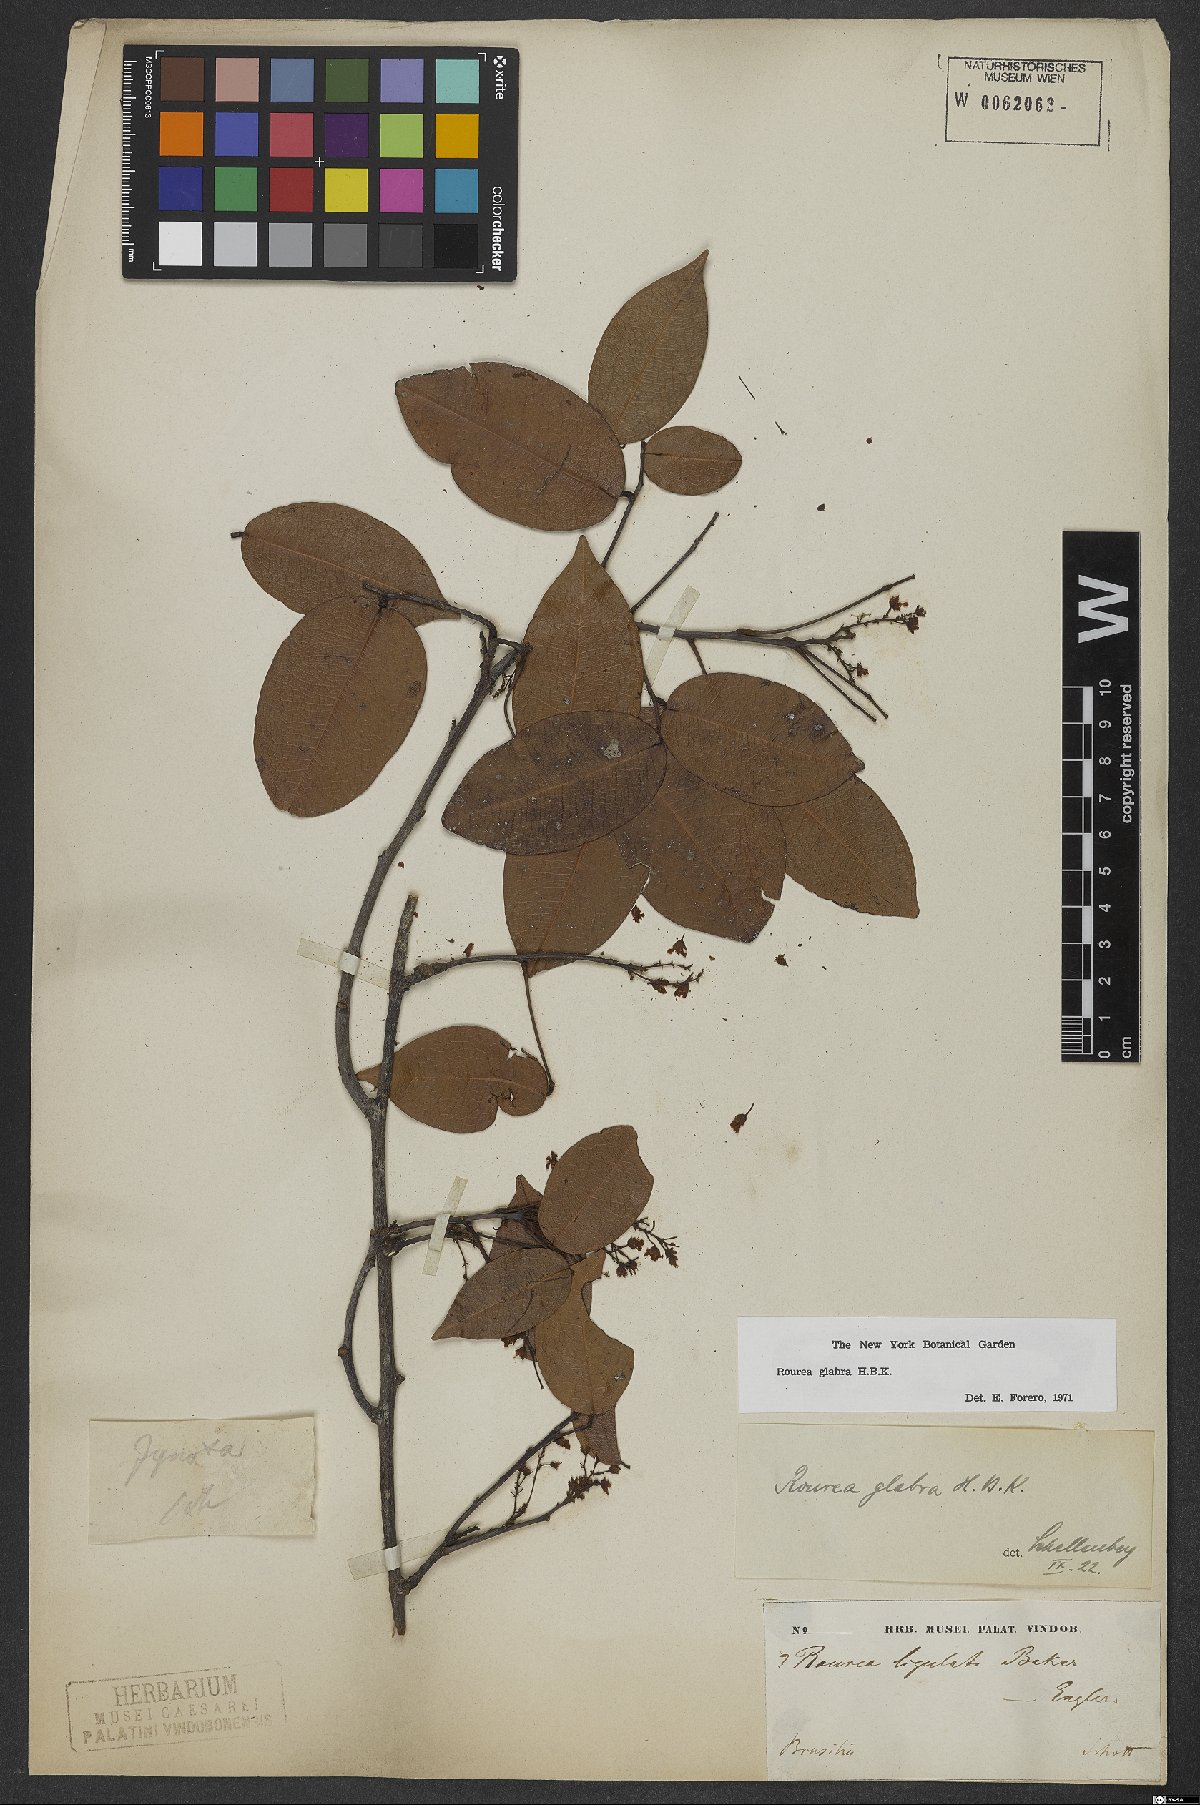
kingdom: Plantae
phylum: Tracheophyta
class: Magnoliopsida
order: Oxalidales
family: Connaraceae
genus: Rourea
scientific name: Rourea glabra
